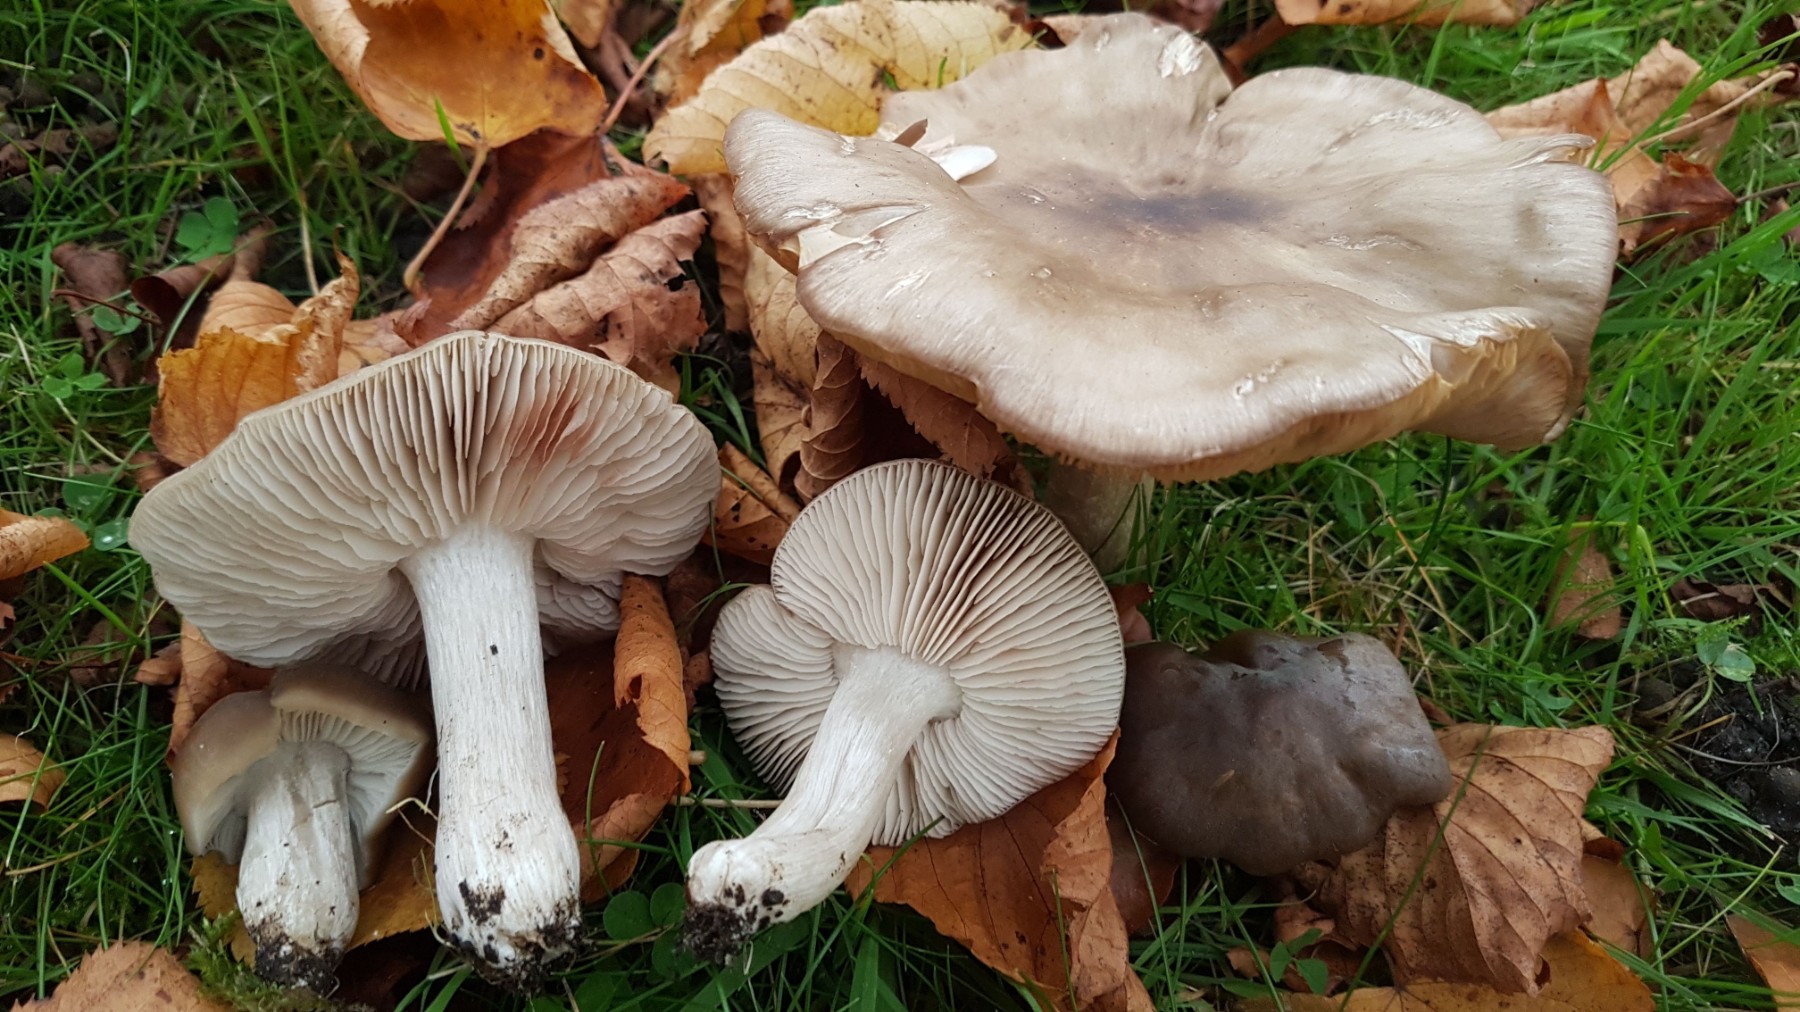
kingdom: Fungi
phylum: Basidiomycota
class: Agaricomycetes
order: Agaricales
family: Entolomataceae
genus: Entoloma
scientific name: Entoloma lividoalbum
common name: lysstokket rødblad
